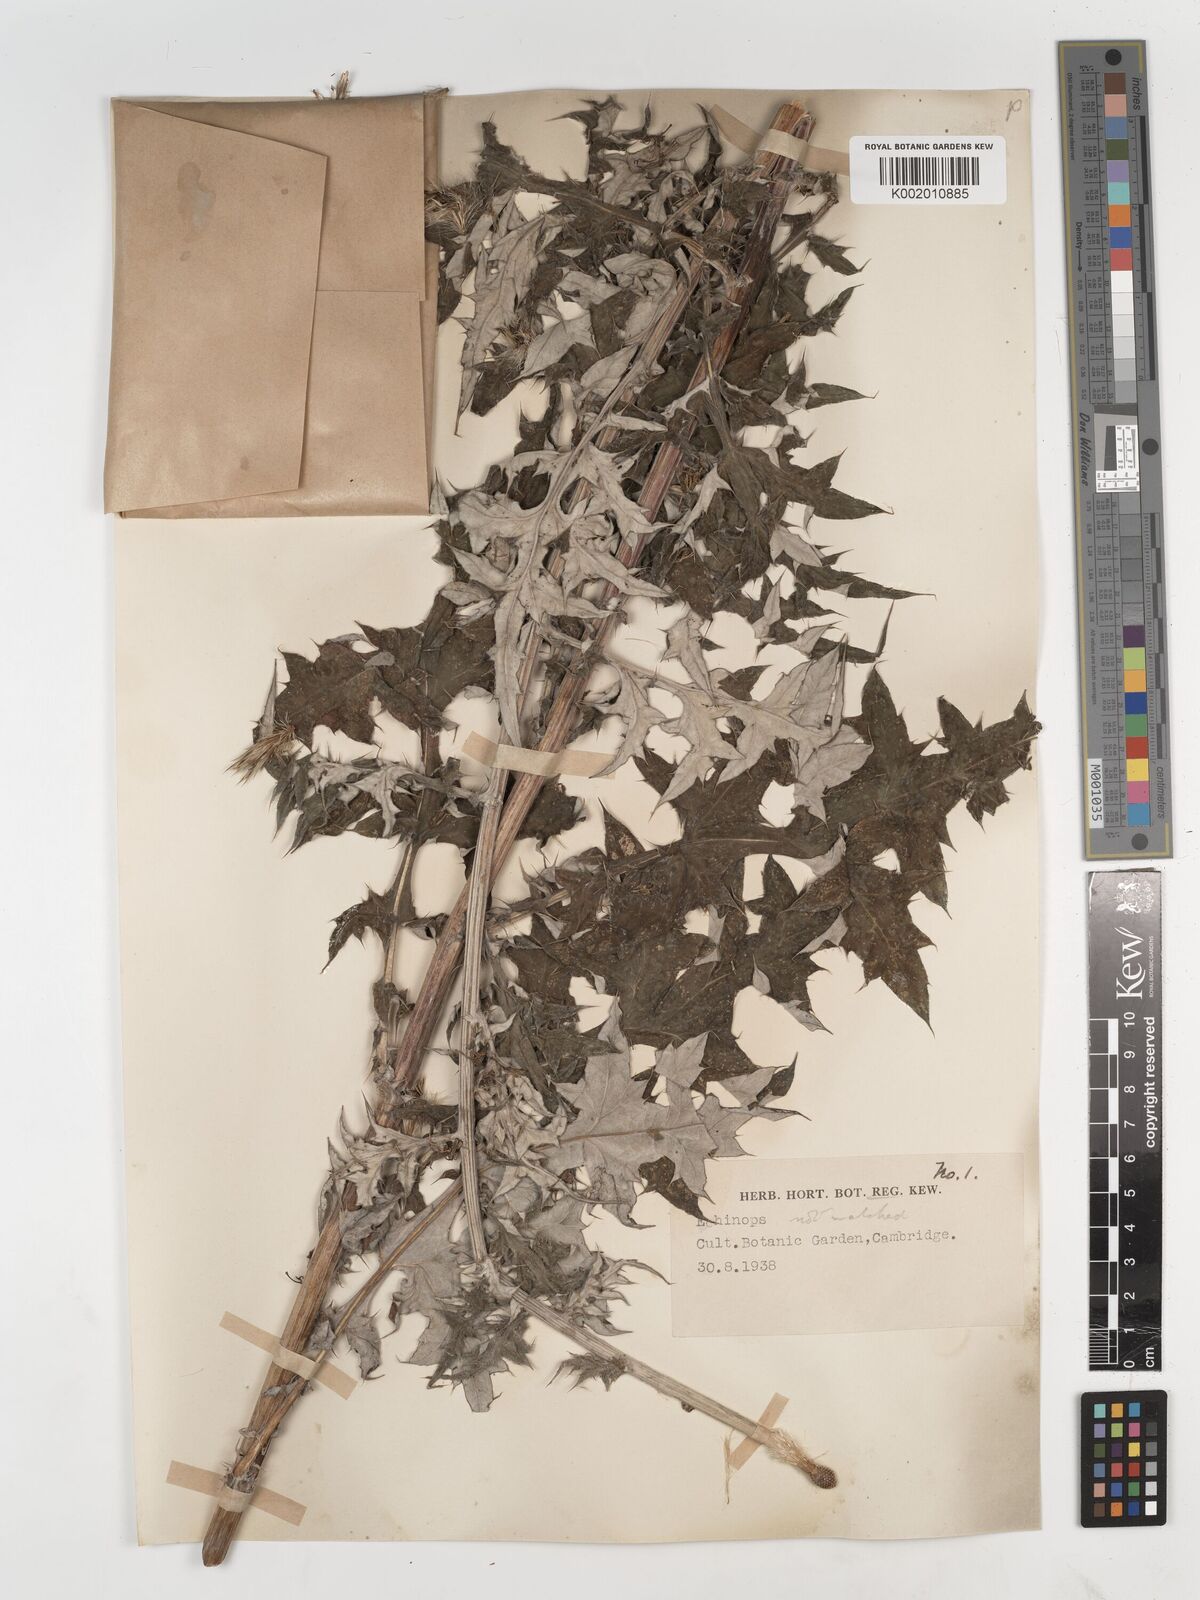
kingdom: Plantae
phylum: Tracheophyta
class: Magnoliopsida
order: Asterales
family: Asteraceae
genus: Echinops
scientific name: Echinops
